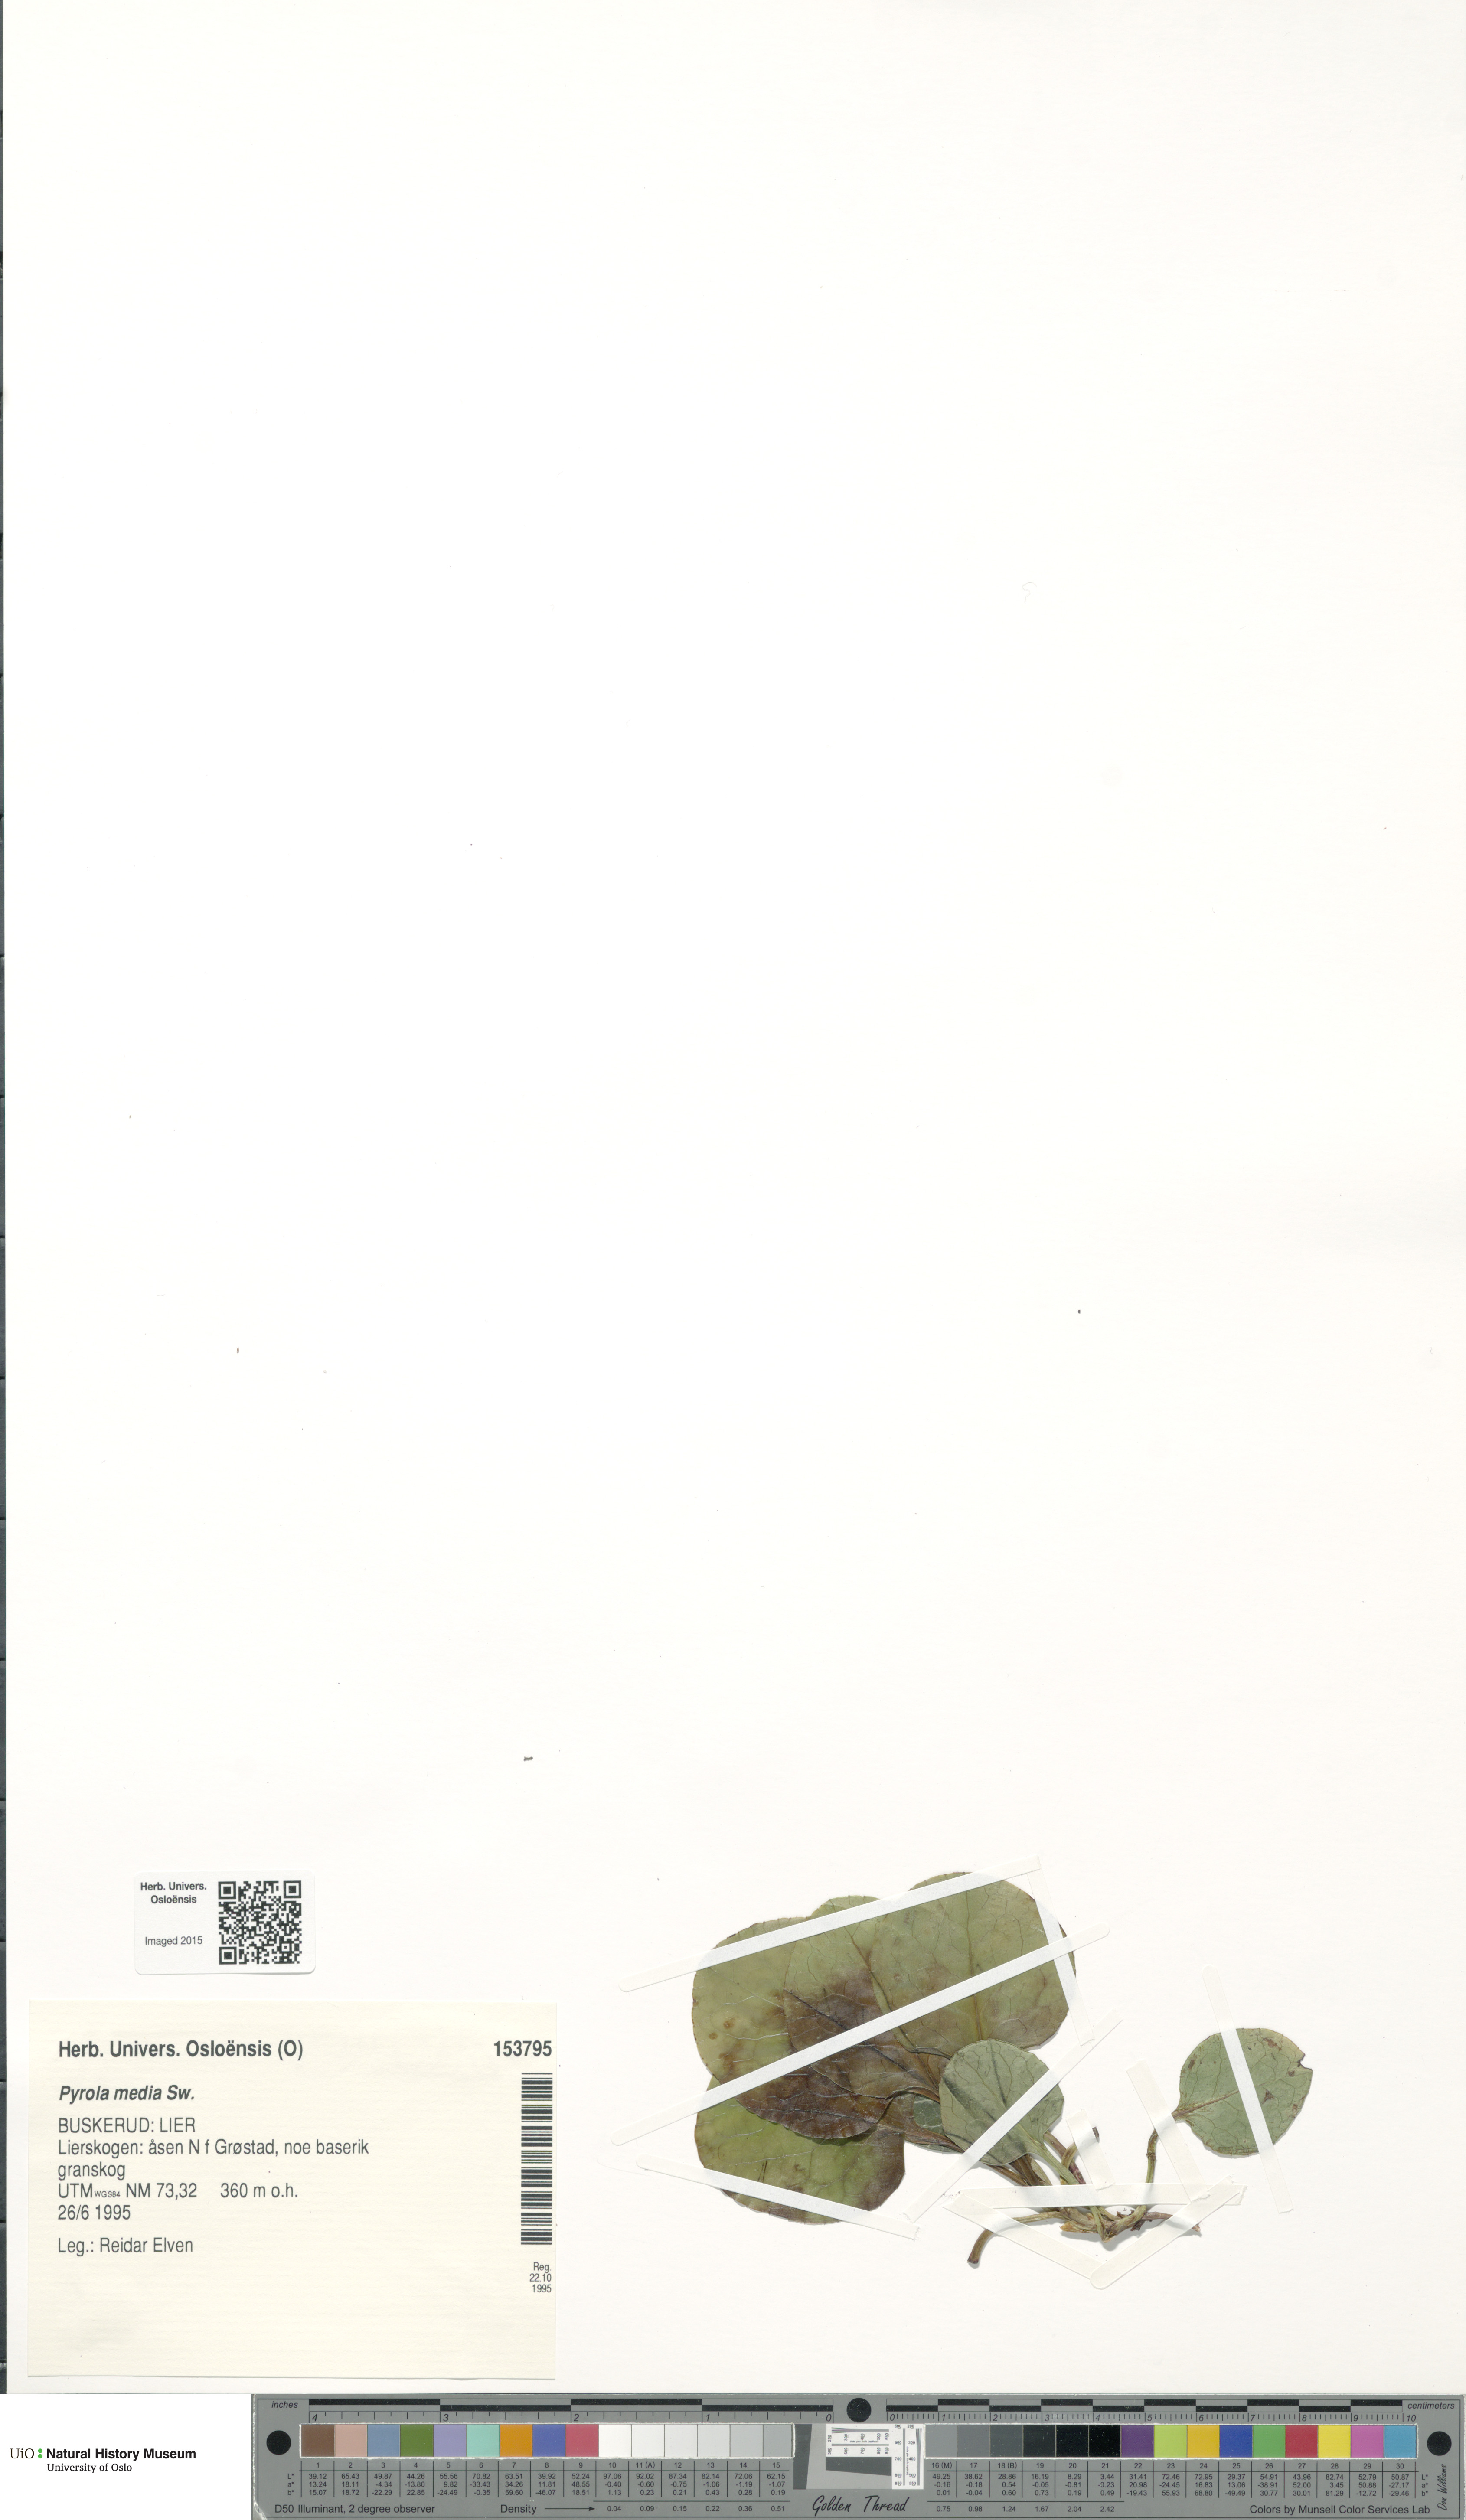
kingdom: Plantae
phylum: Tracheophyta
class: Magnoliopsida
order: Ericales
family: Ericaceae
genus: Pyrola
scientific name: Pyrola media
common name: Intermediate wintergreen
